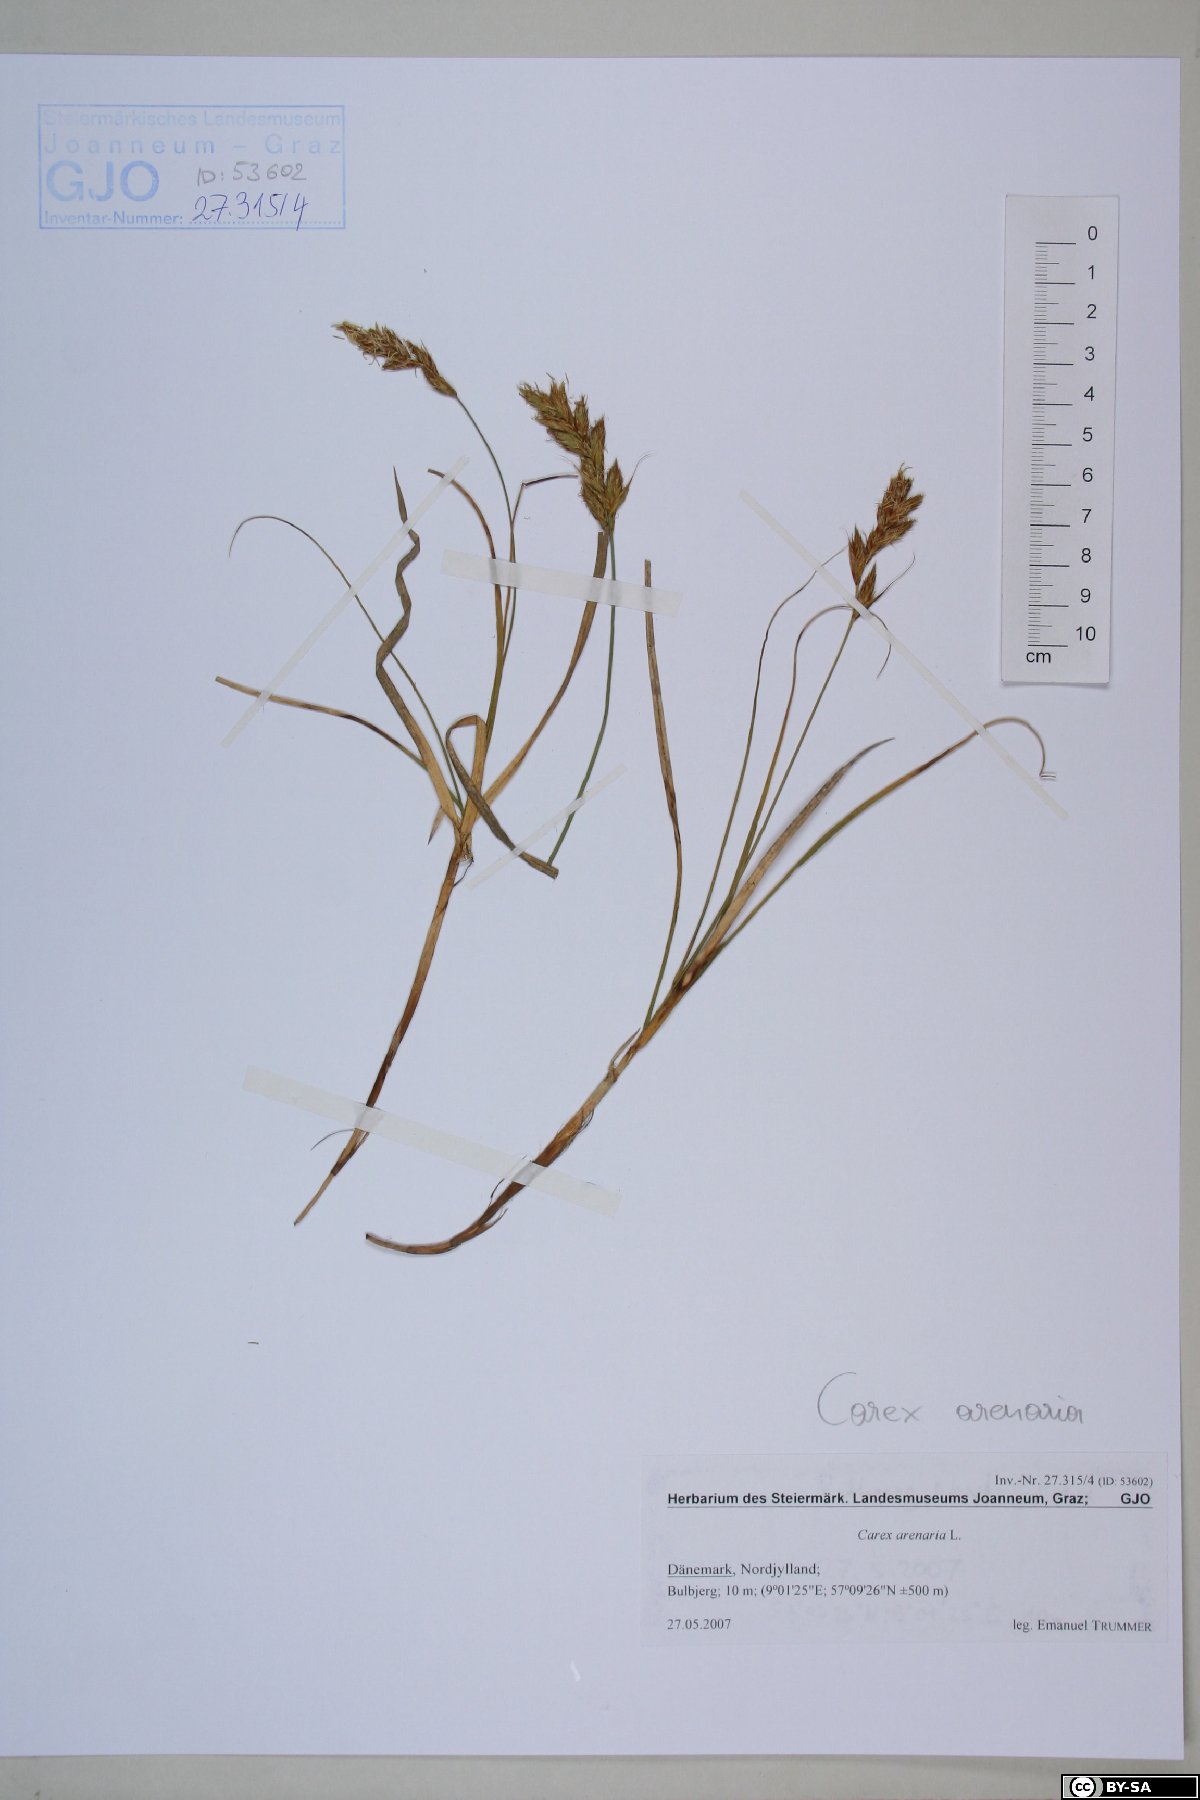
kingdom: Plantae
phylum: Tracheophyta
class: Liliopsida
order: Poales
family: Cyperaceae
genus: Carex
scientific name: Carex arenaria
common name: Sand sedge
